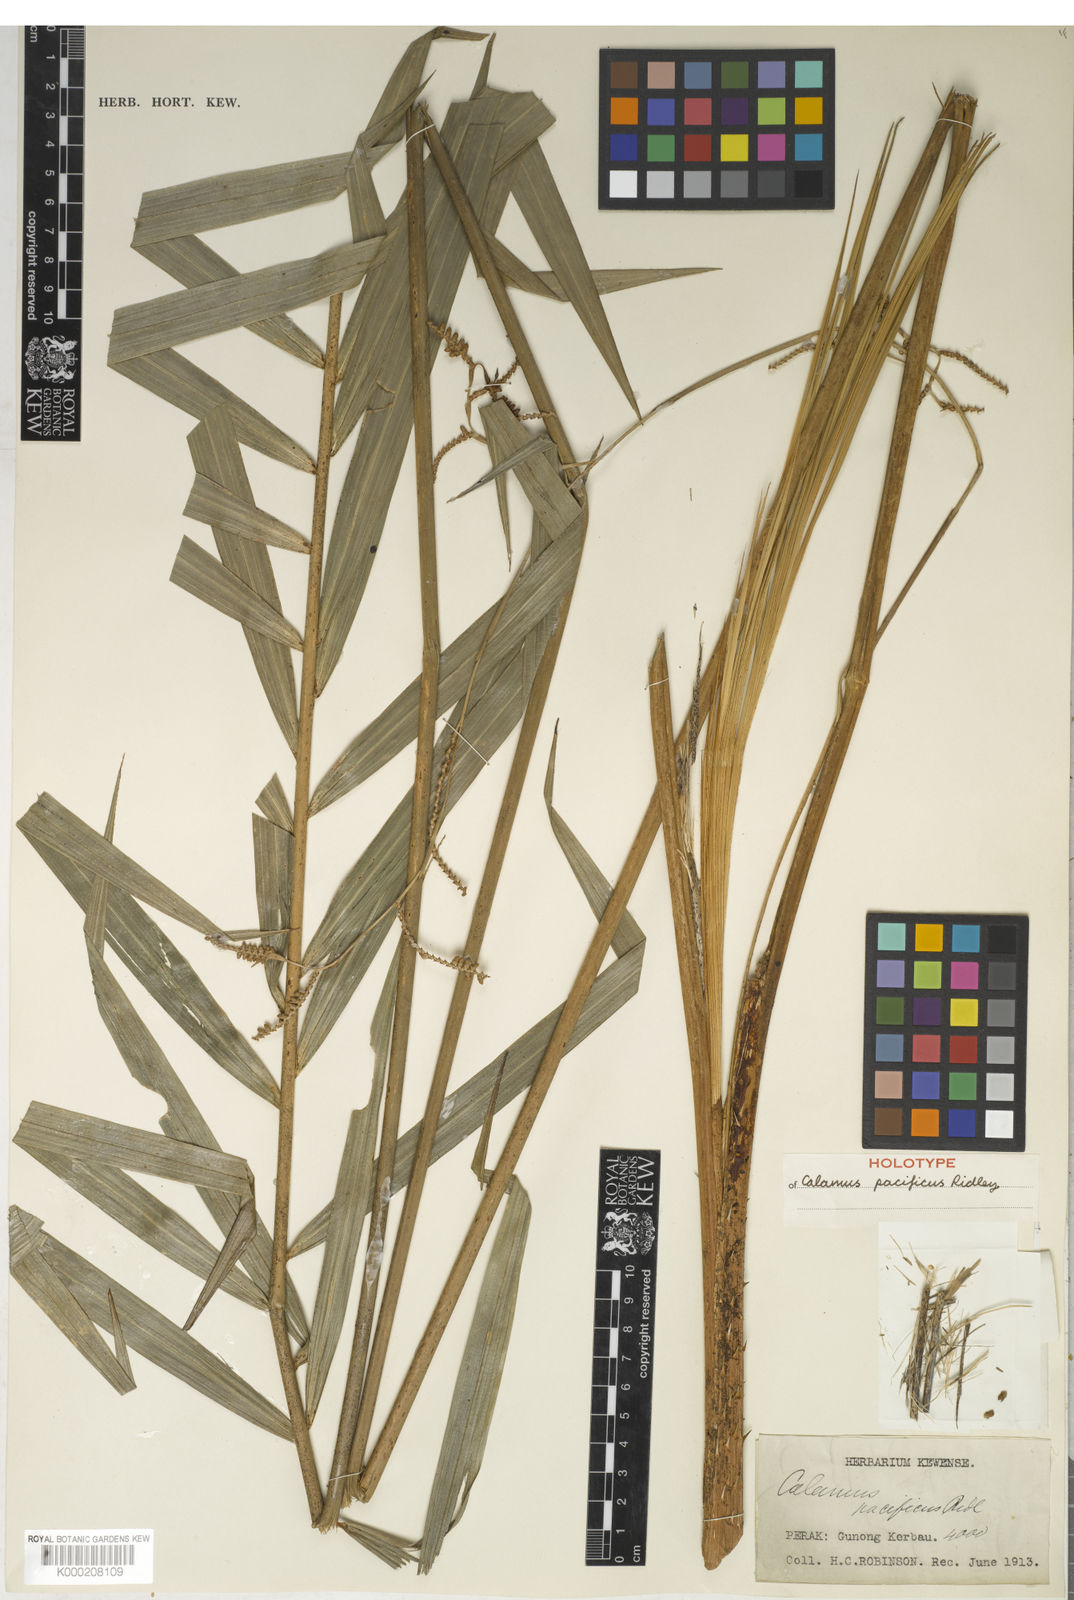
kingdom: Plantae
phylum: Tracheophyta
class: Liliopsida
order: Arecales
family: Arecaceae
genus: Calamus
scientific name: Calamus diepenhorstii
